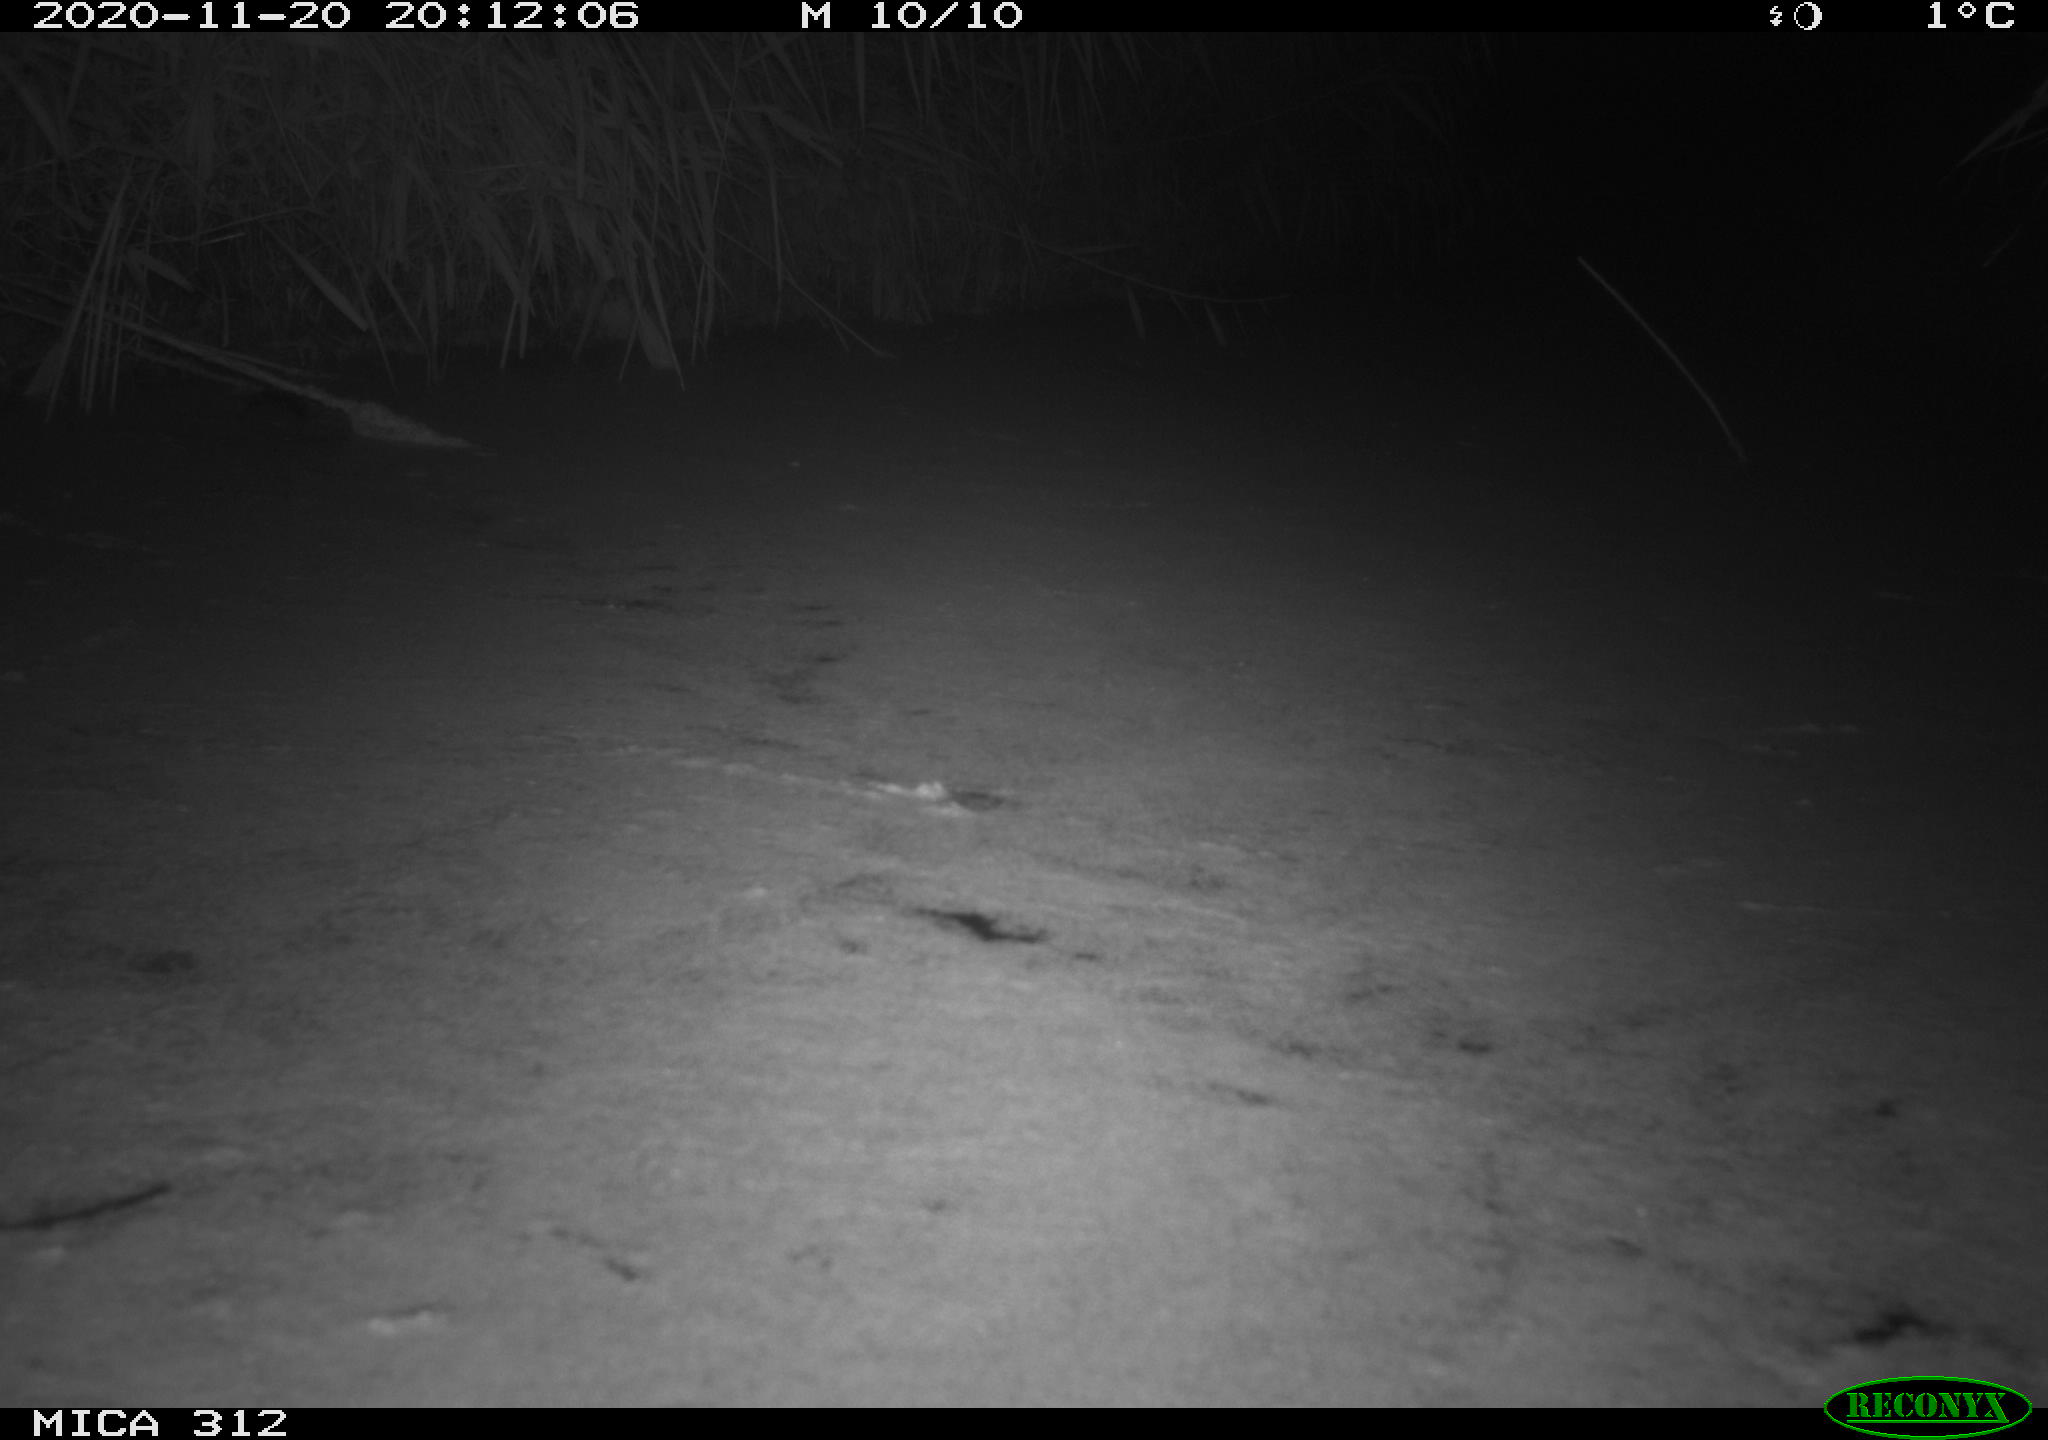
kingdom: Animalia
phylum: Chordata
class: Mammalia
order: Rodentia
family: Muridae
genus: Rattus
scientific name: Rattus norvegicus
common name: Brown rat
